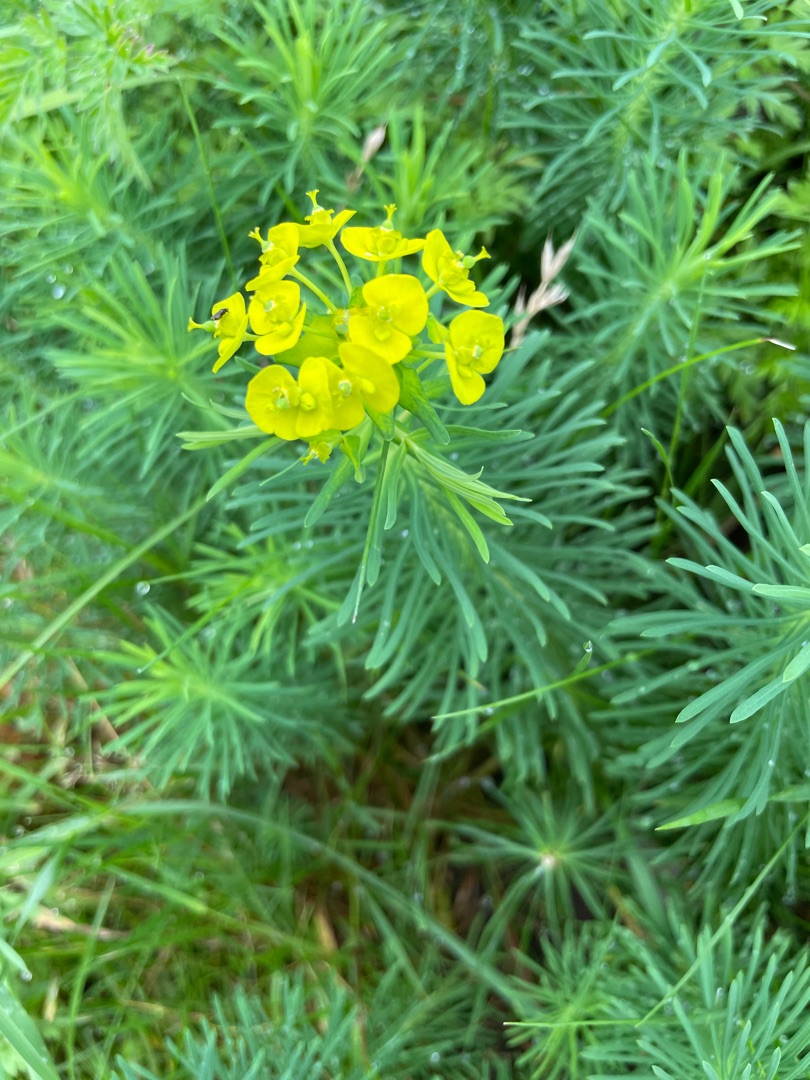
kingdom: Plantae
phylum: Tracheophyta
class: Magnoliopsida
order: Malpighiales
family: Euphorbiaceae
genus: Euphorbia
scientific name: Euphorbia cyparissias
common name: Cypres-vortemælk
